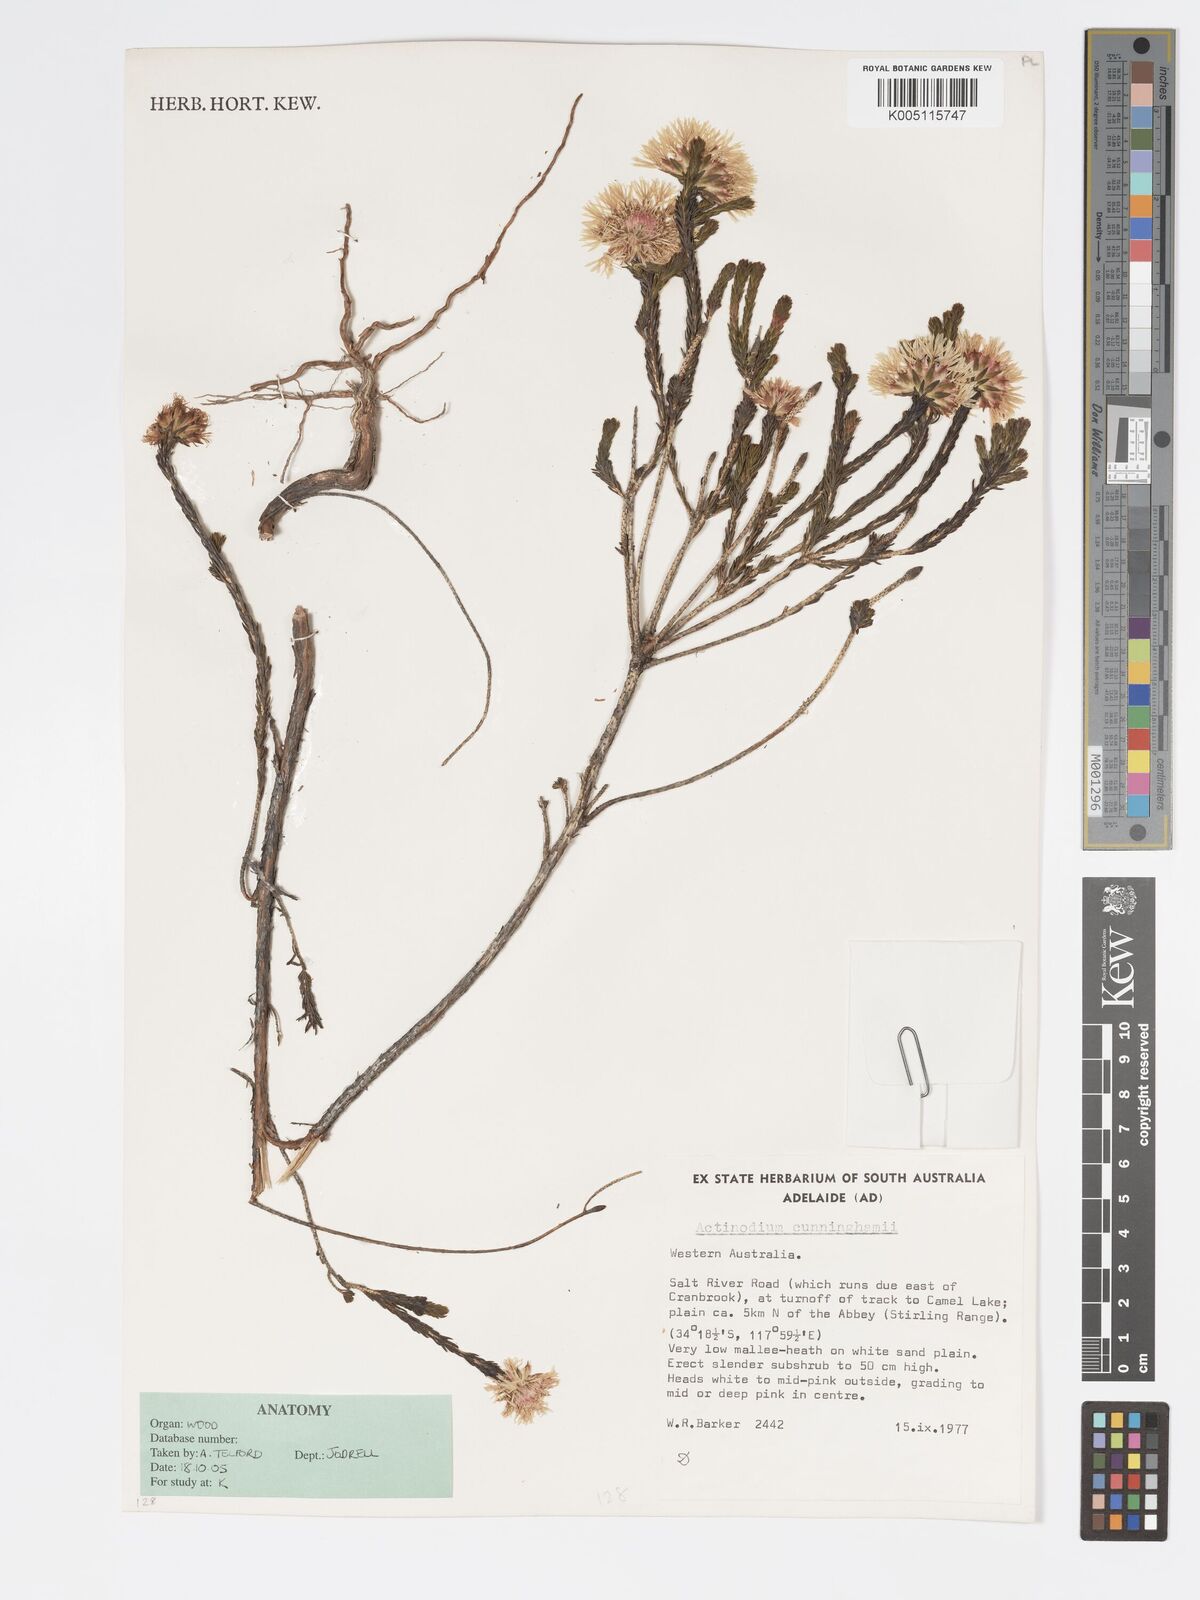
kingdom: Plantae
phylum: Tracheophyta
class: Magnoliopsida
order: Myrtales
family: Myrtaceae
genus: Actinodium
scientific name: Actinodium cunninghamii
